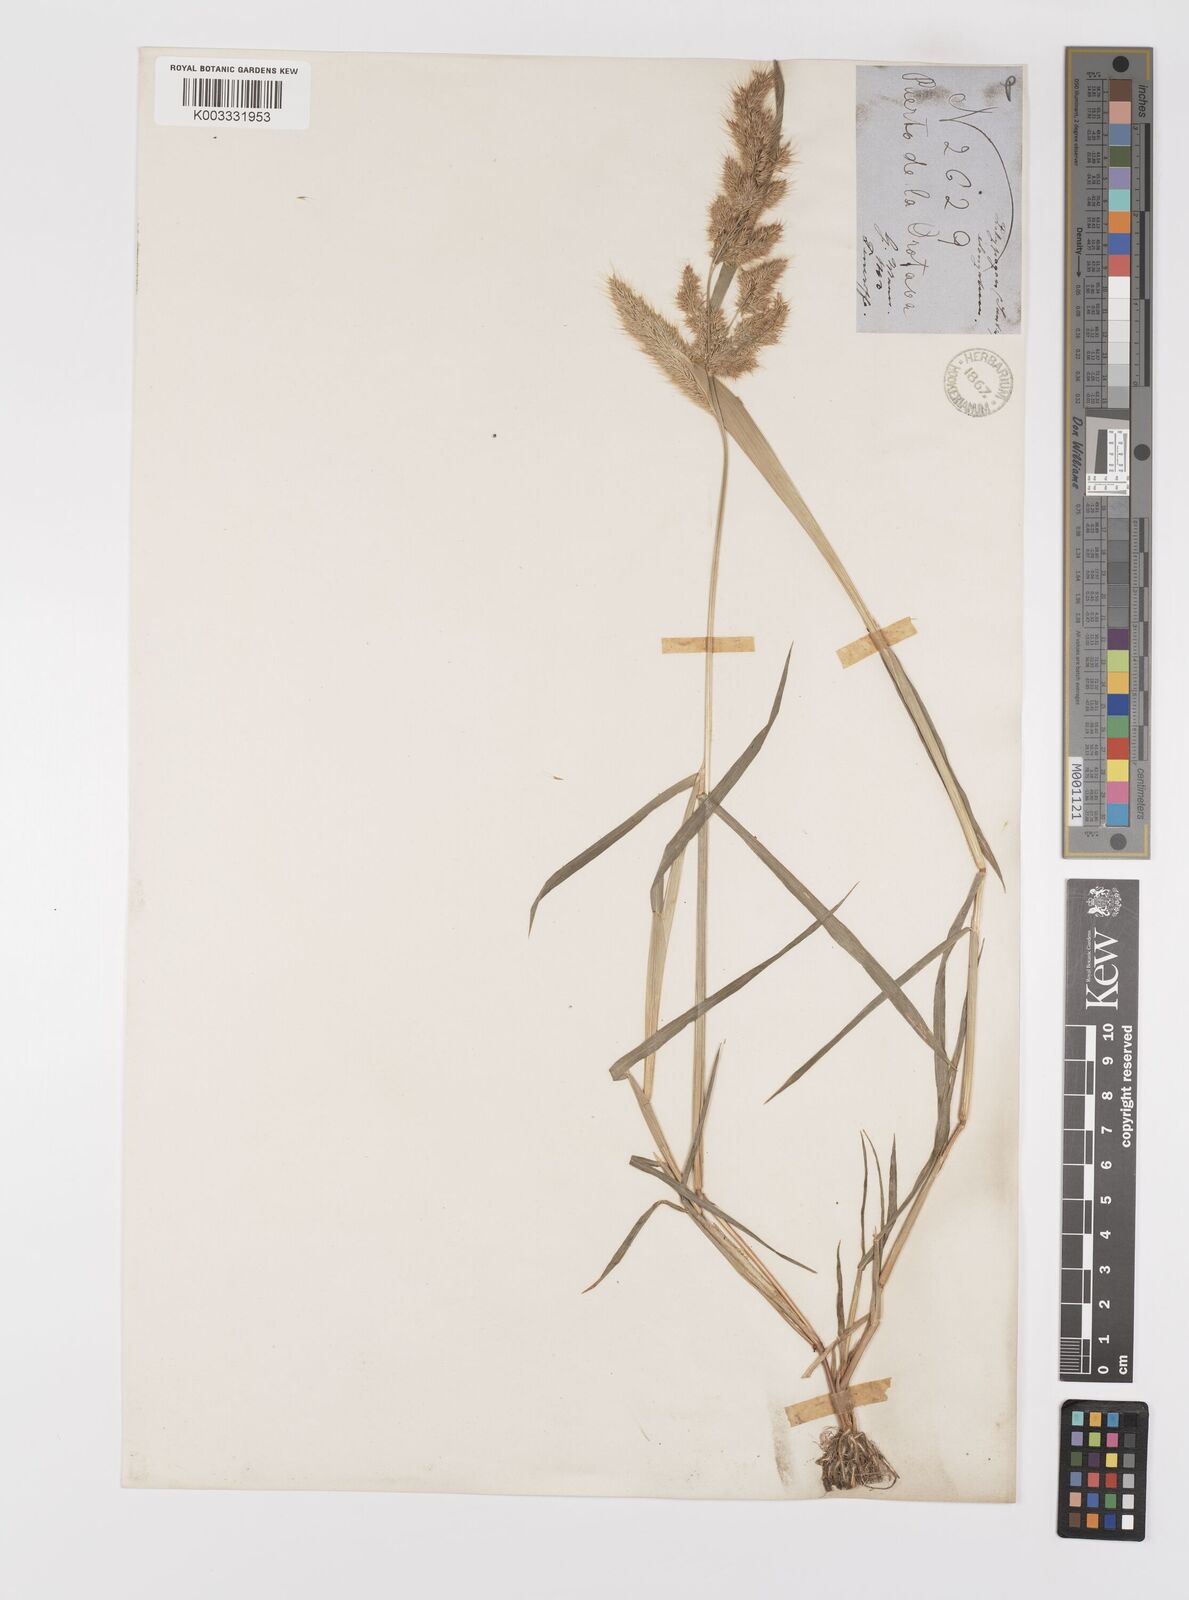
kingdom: Plantae
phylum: Tracheophyta
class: Liliopsida
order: Poales
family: Poaceae
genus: Polypogon
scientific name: Polypogon fugax
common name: Asia minor bluegrass
